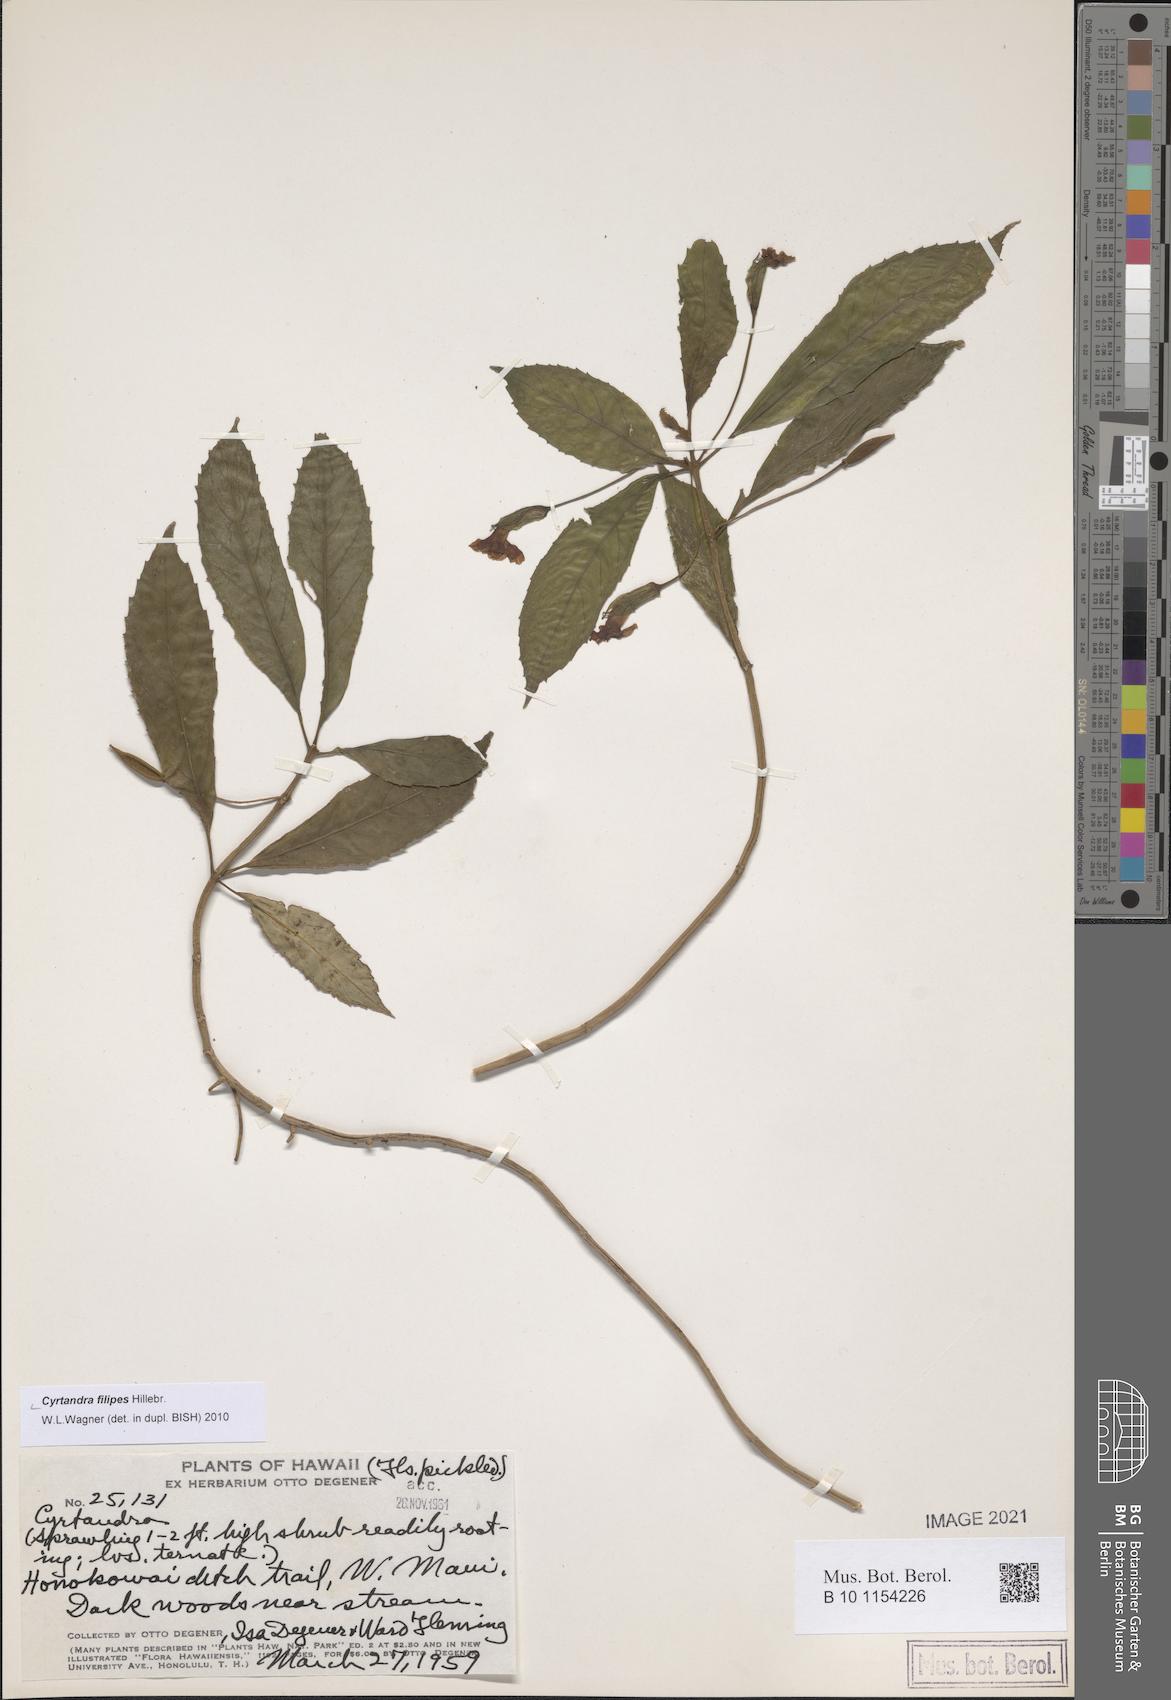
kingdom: Plantae
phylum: Tracheophyta
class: Magnoliopsida
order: Lamiales
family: Gesneriaceae
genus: Cyrtandra
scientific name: Cyrtandra filipes
